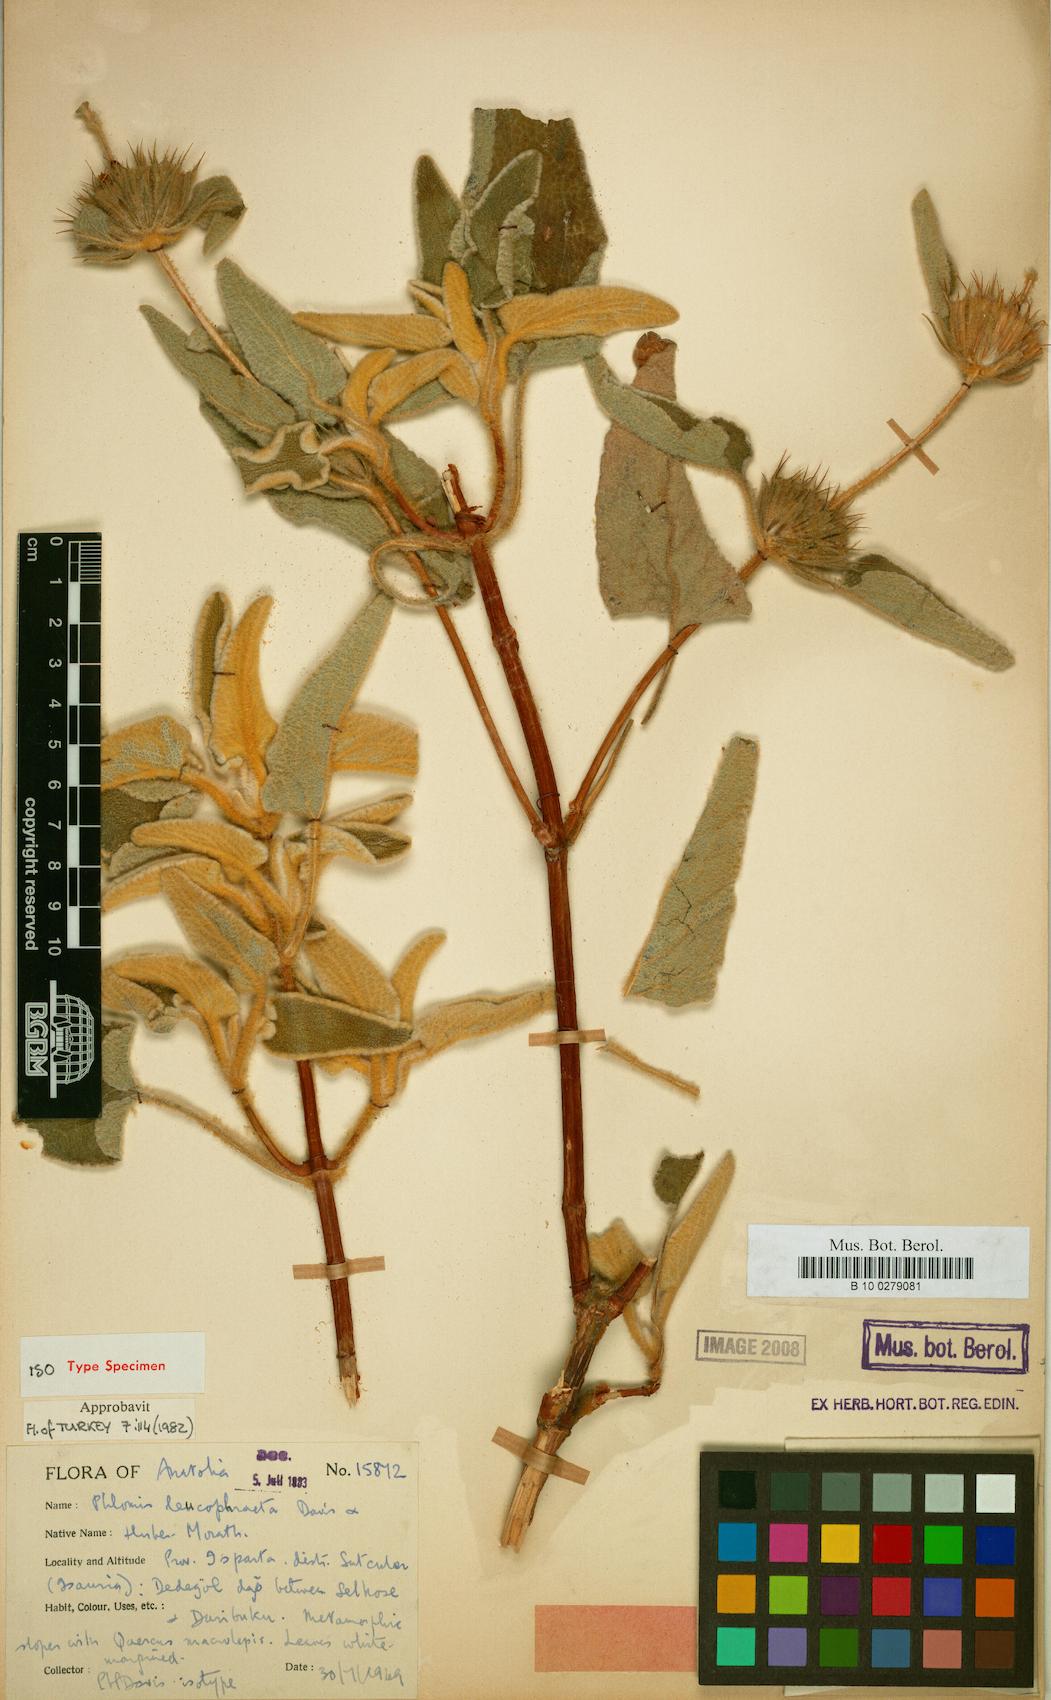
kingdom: Plantae
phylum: Tracheophyta
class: Magnoliopsida
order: Lamiales
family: Lamiaceae
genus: Phlomis
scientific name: Phlomis leucophracta
